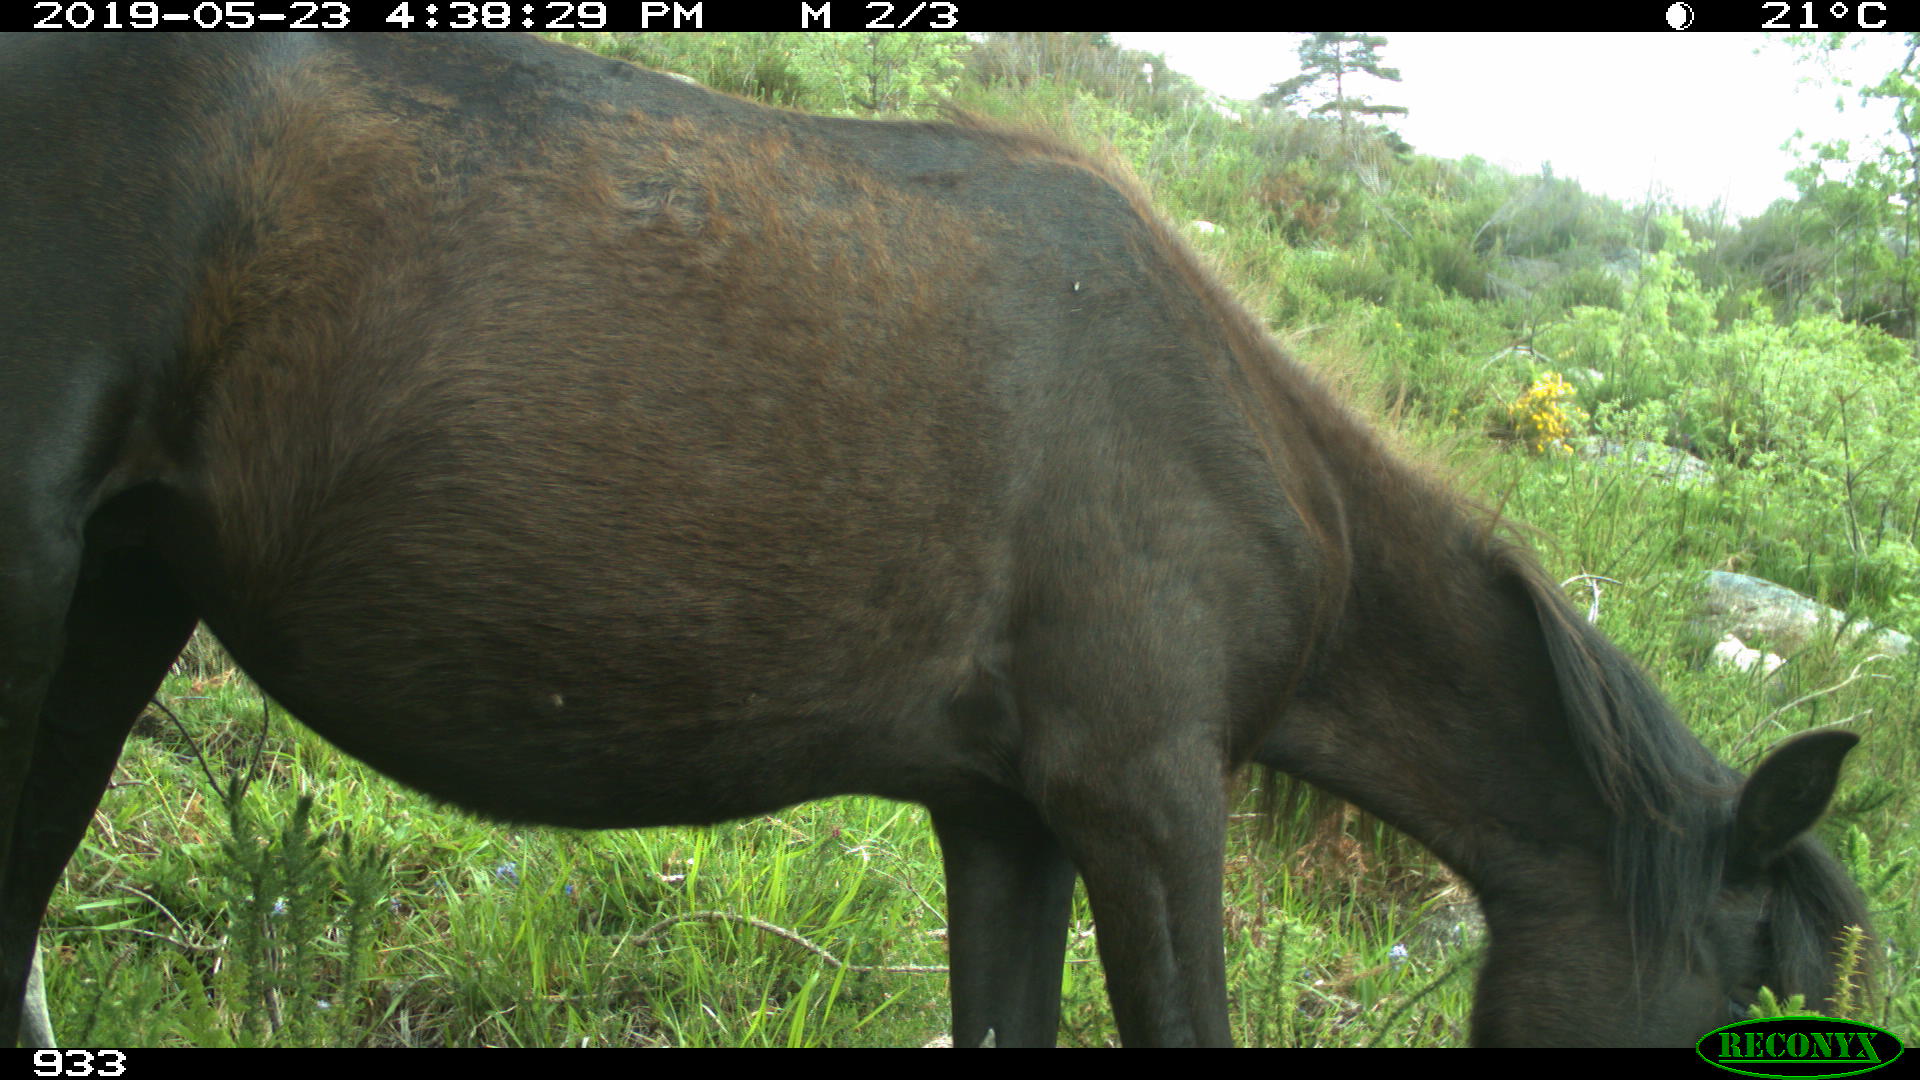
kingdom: Animalia
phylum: Chordata
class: Mammalia
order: Perissodactyla
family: Equidae
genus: Equus
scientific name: Equus caballus
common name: Horse
